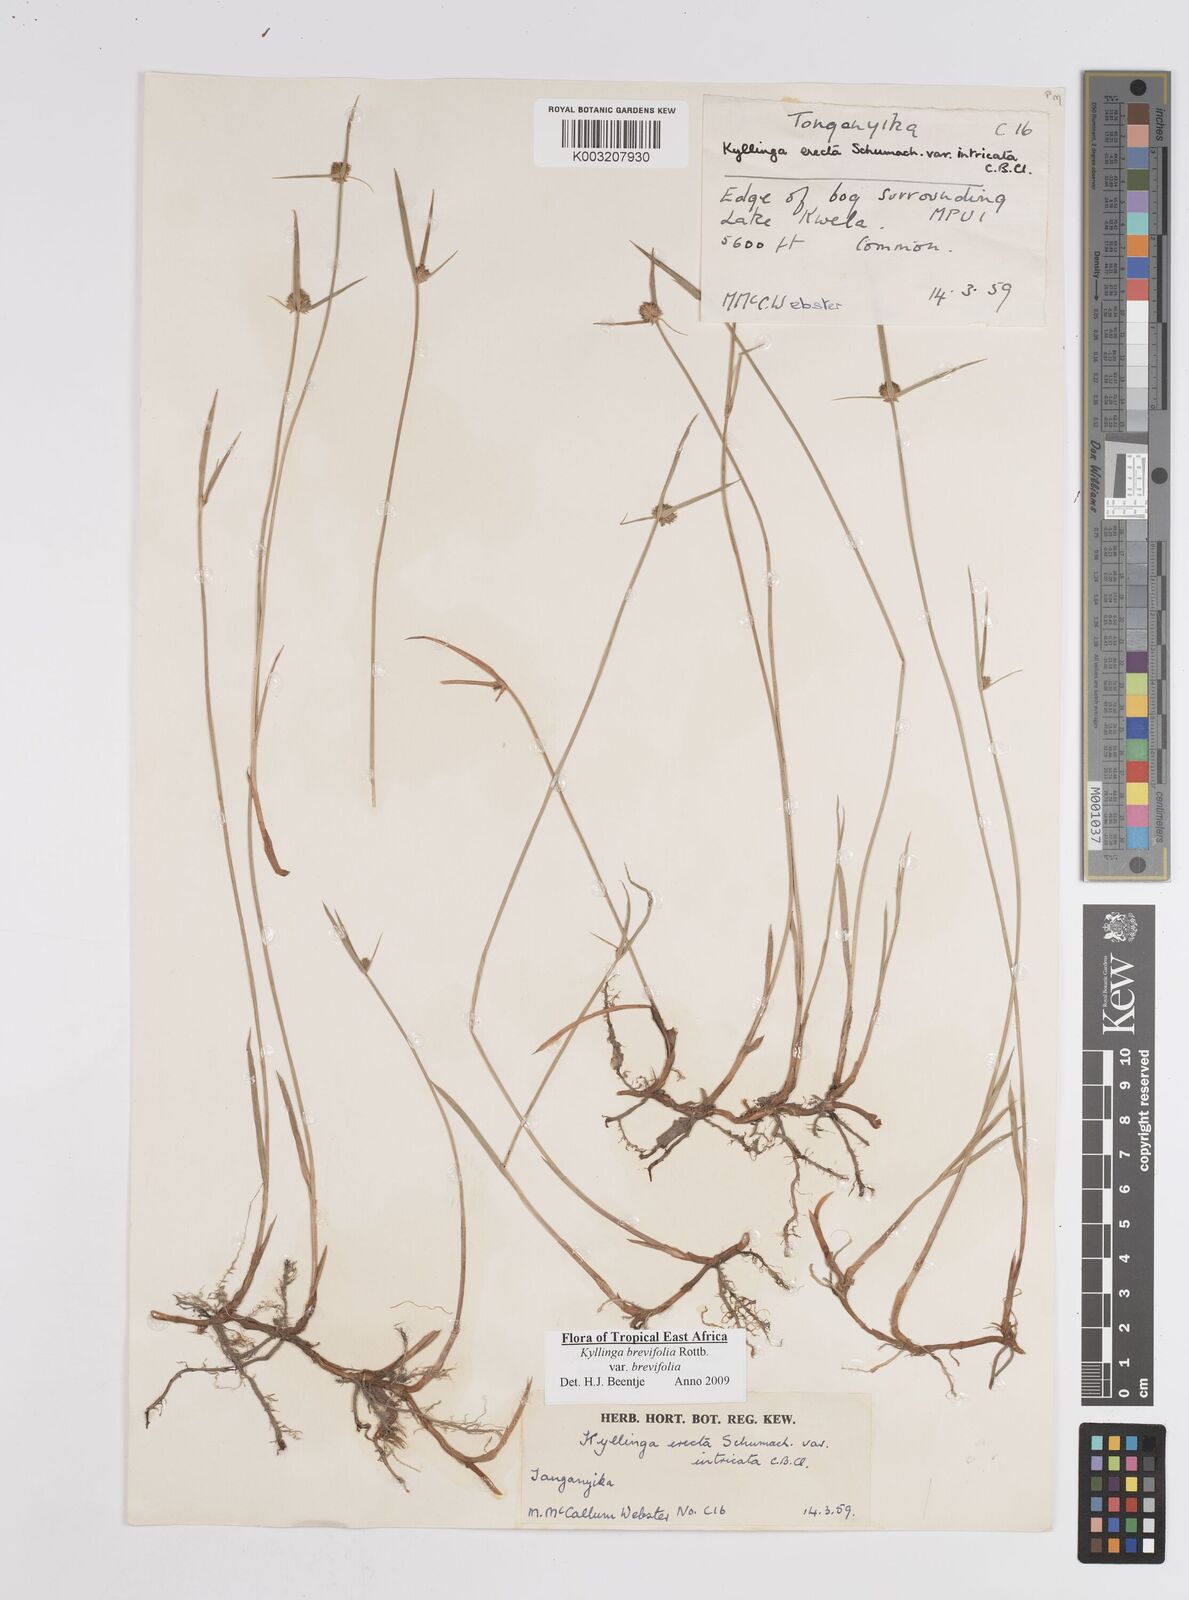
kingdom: Plantae
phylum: Tracheophyta
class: Liliopsida
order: Poales
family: Cyperaceae
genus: Cyperus
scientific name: Cyperus brevifolius
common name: Globe kyllinga
